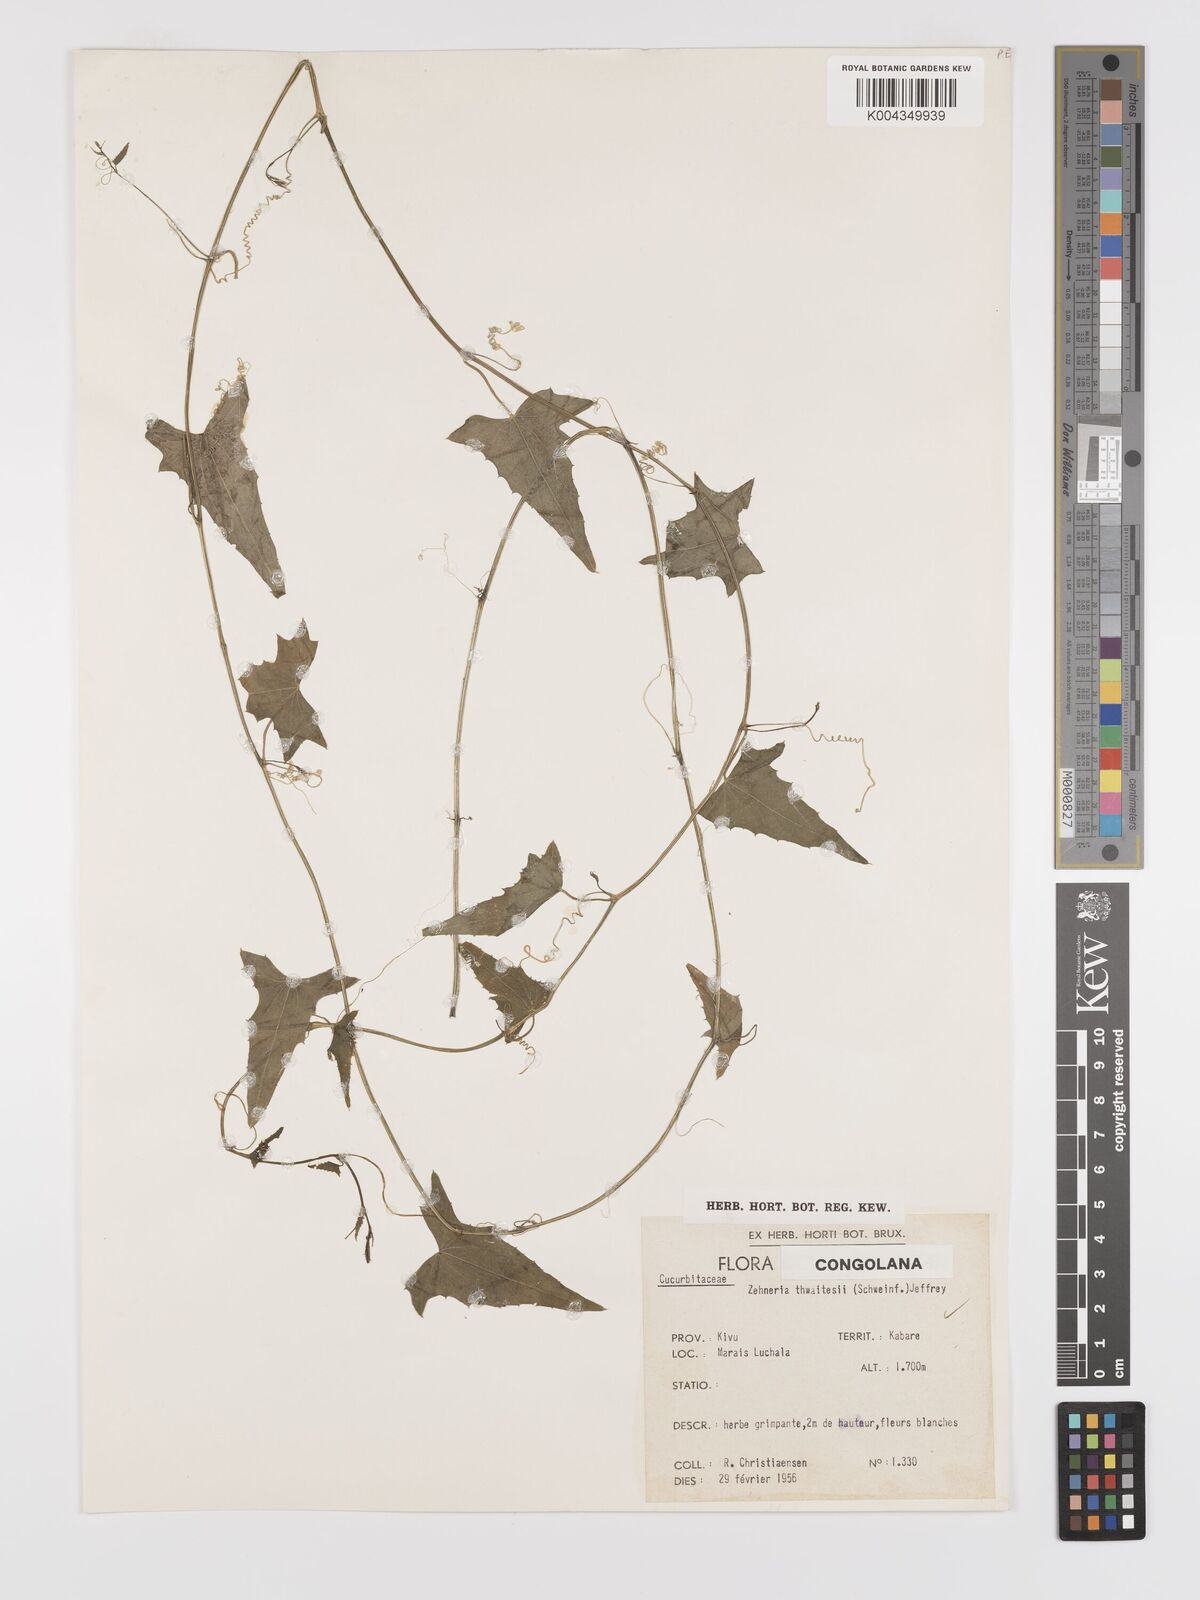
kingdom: Plantae
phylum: Tracheophyta
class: Magnoliopsida
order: Cucurbitales
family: Cucurbitaceae
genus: Zehneria
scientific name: Zehneria thwaitesii
